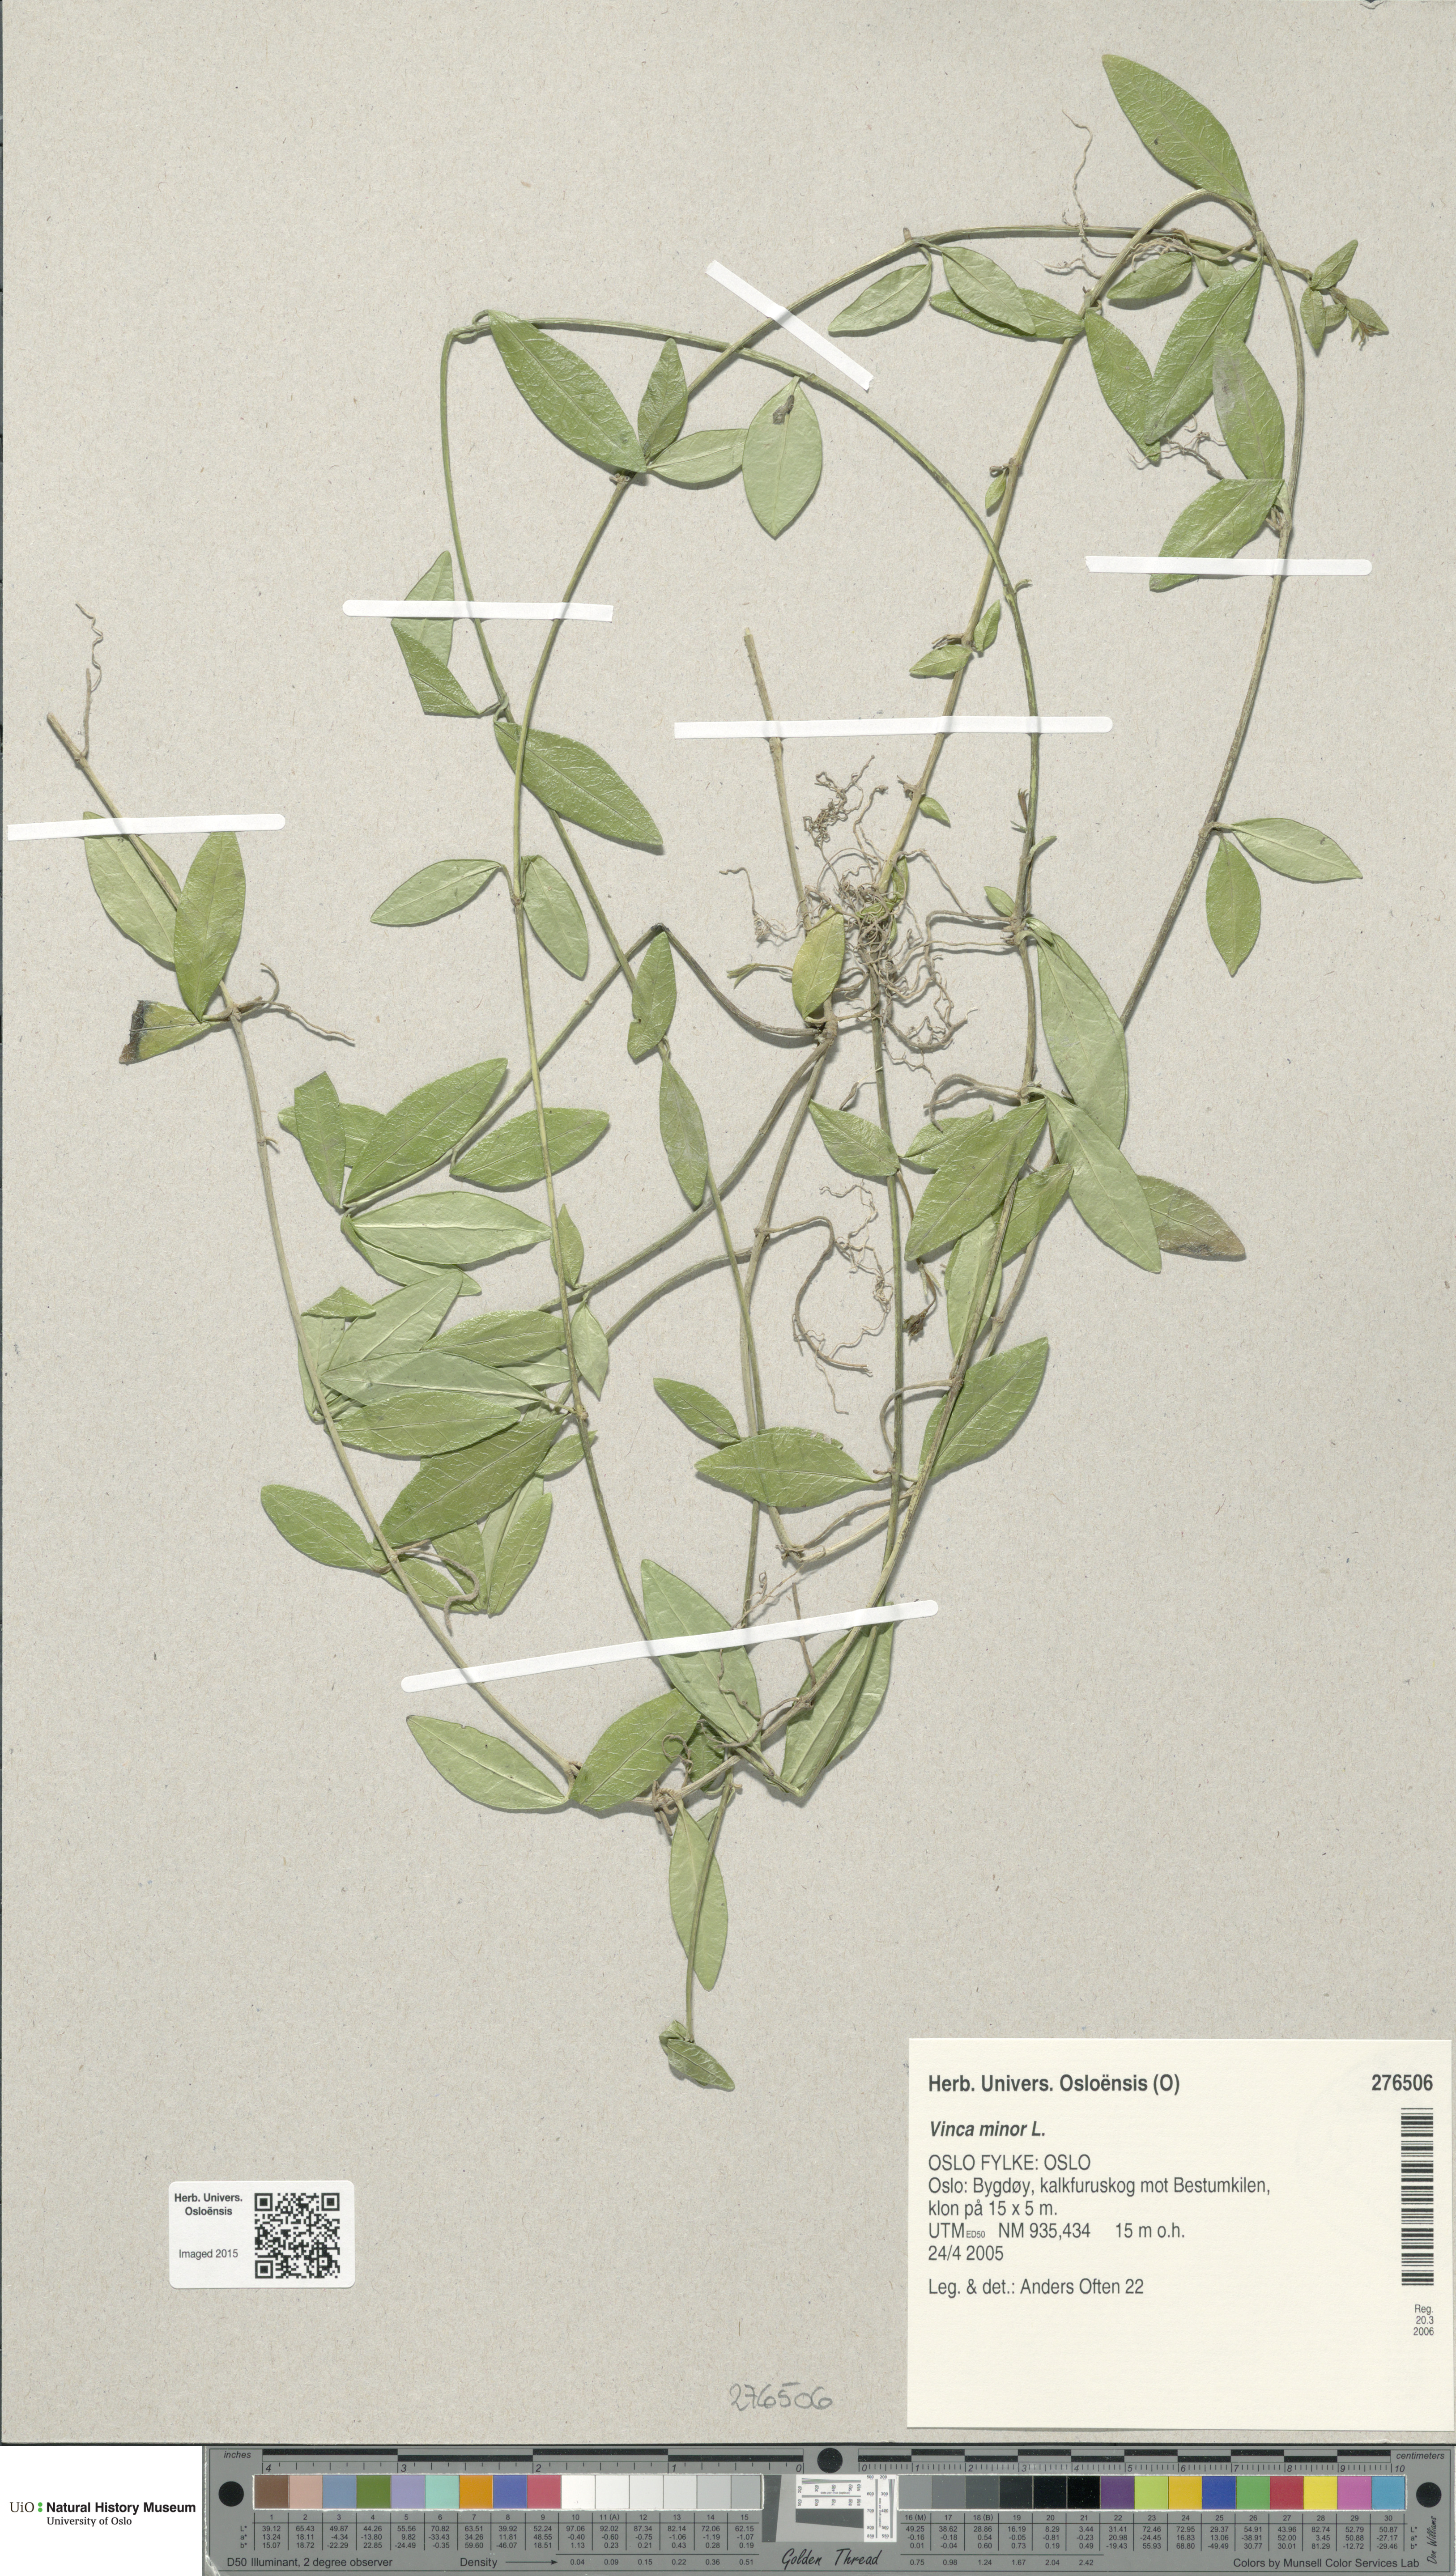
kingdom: Plantae
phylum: Tracheophyta
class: Magnoliopsida
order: Gentianales
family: Apocynaceae
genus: Vinca
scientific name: Vinca minor
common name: Lesser periwinkle
